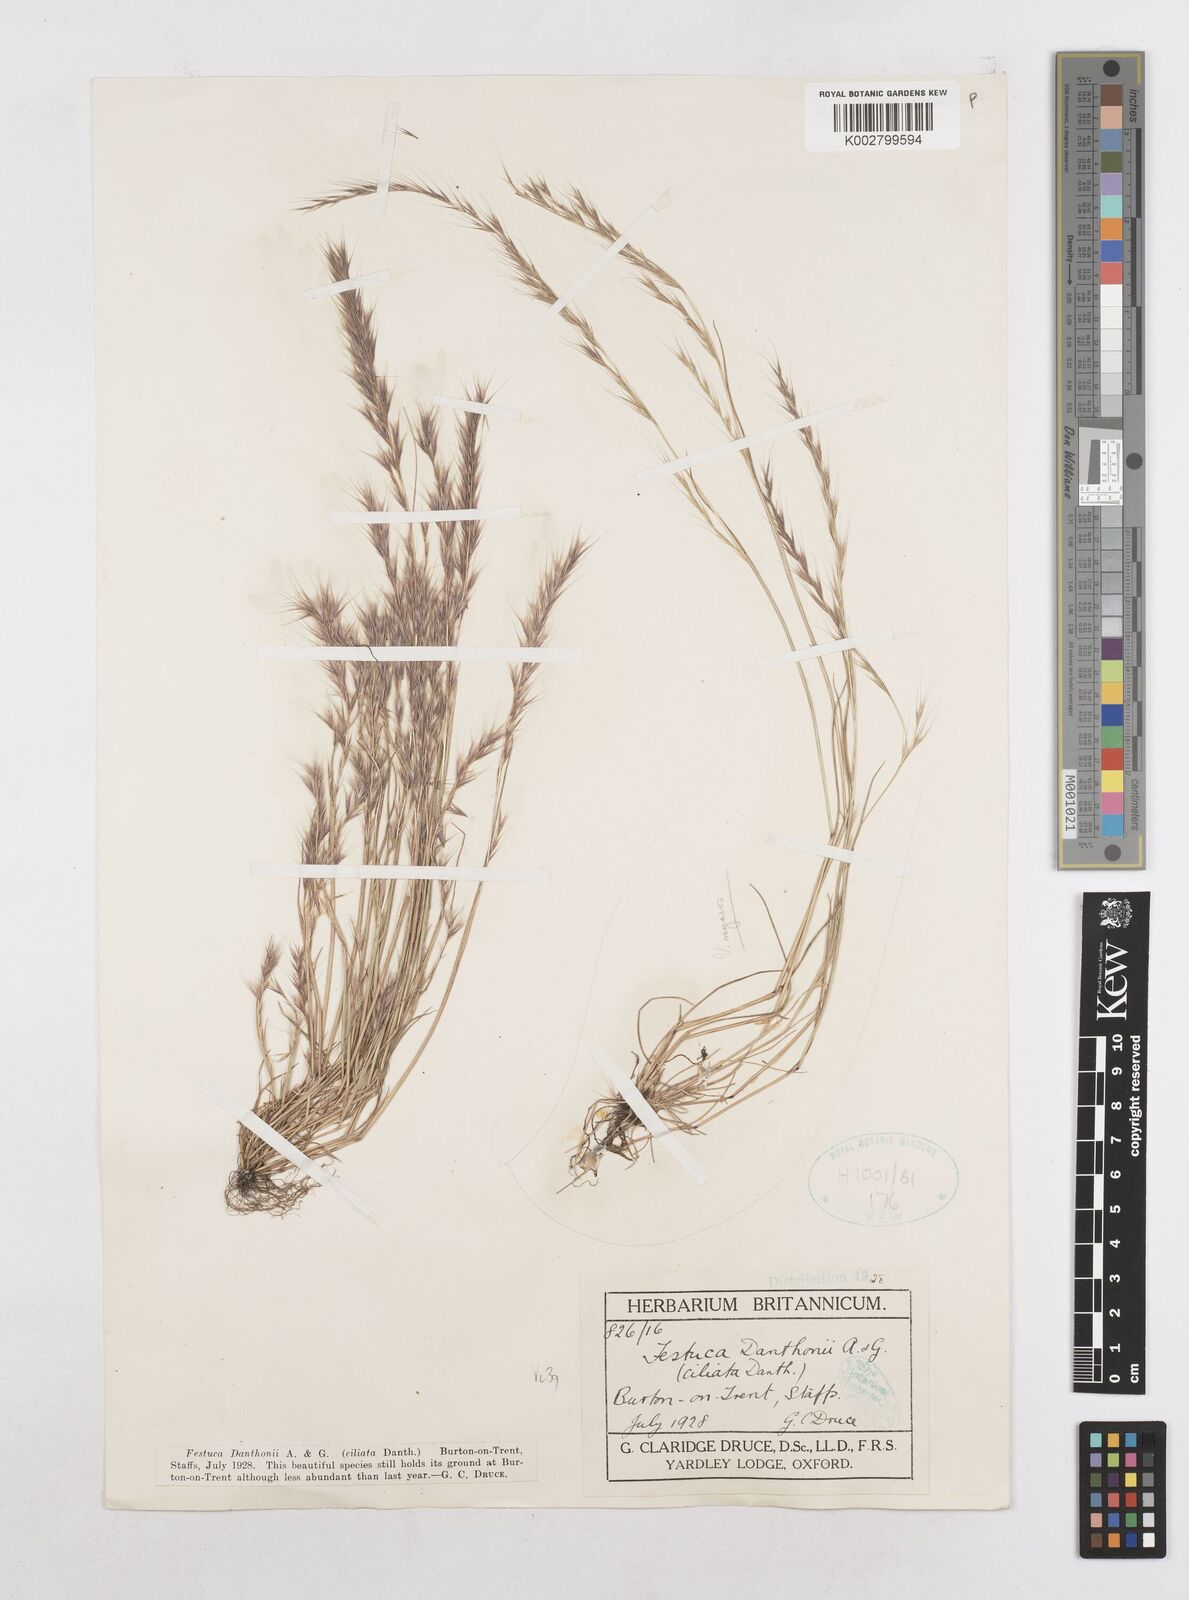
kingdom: Plantae
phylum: Tracheophyta
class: Liliopsida
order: Poales
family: Poaceae
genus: Festuca
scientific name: Festuca
